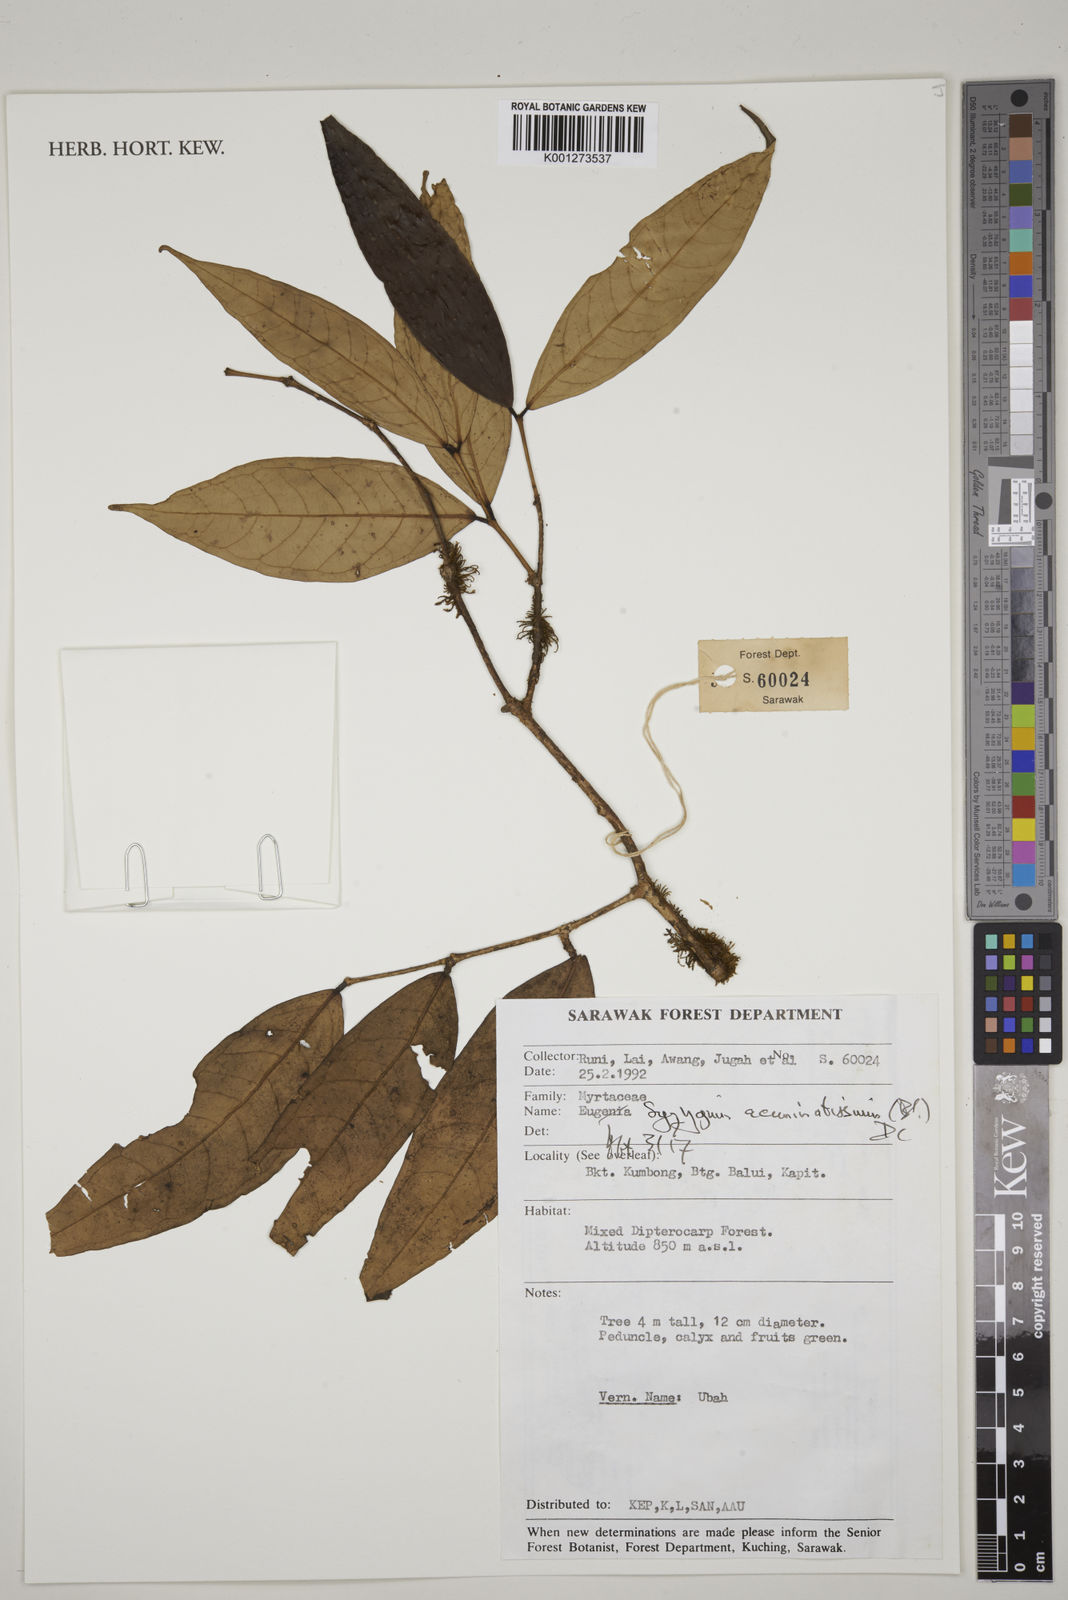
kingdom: Plantae
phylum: Tracheophyta
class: Magnoliopsida
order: Myrtales
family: Myrtaceae
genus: Syzygium
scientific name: Syzygium acuminatissimum
